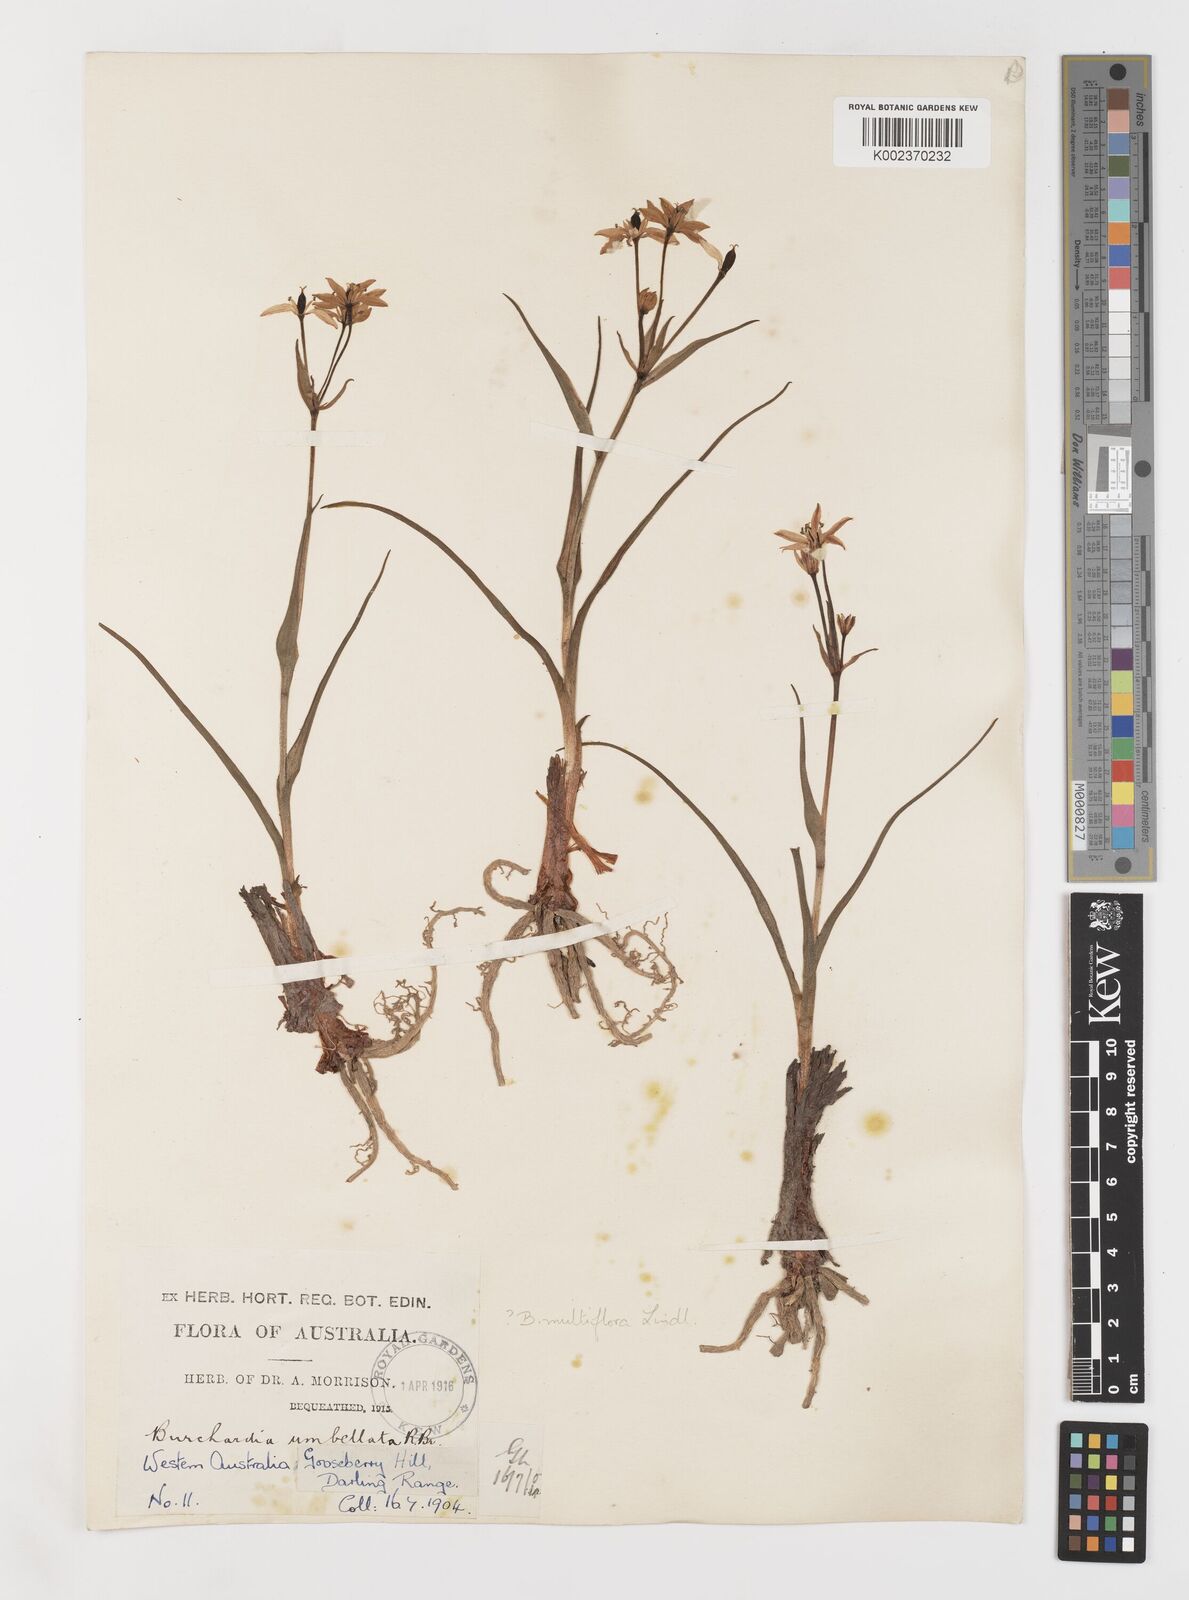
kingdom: Plantae
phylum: Tracheophyta
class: Liliopsida
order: Liliales
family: Colchicaceae
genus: Burchardia
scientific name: Burchardia multiflora
